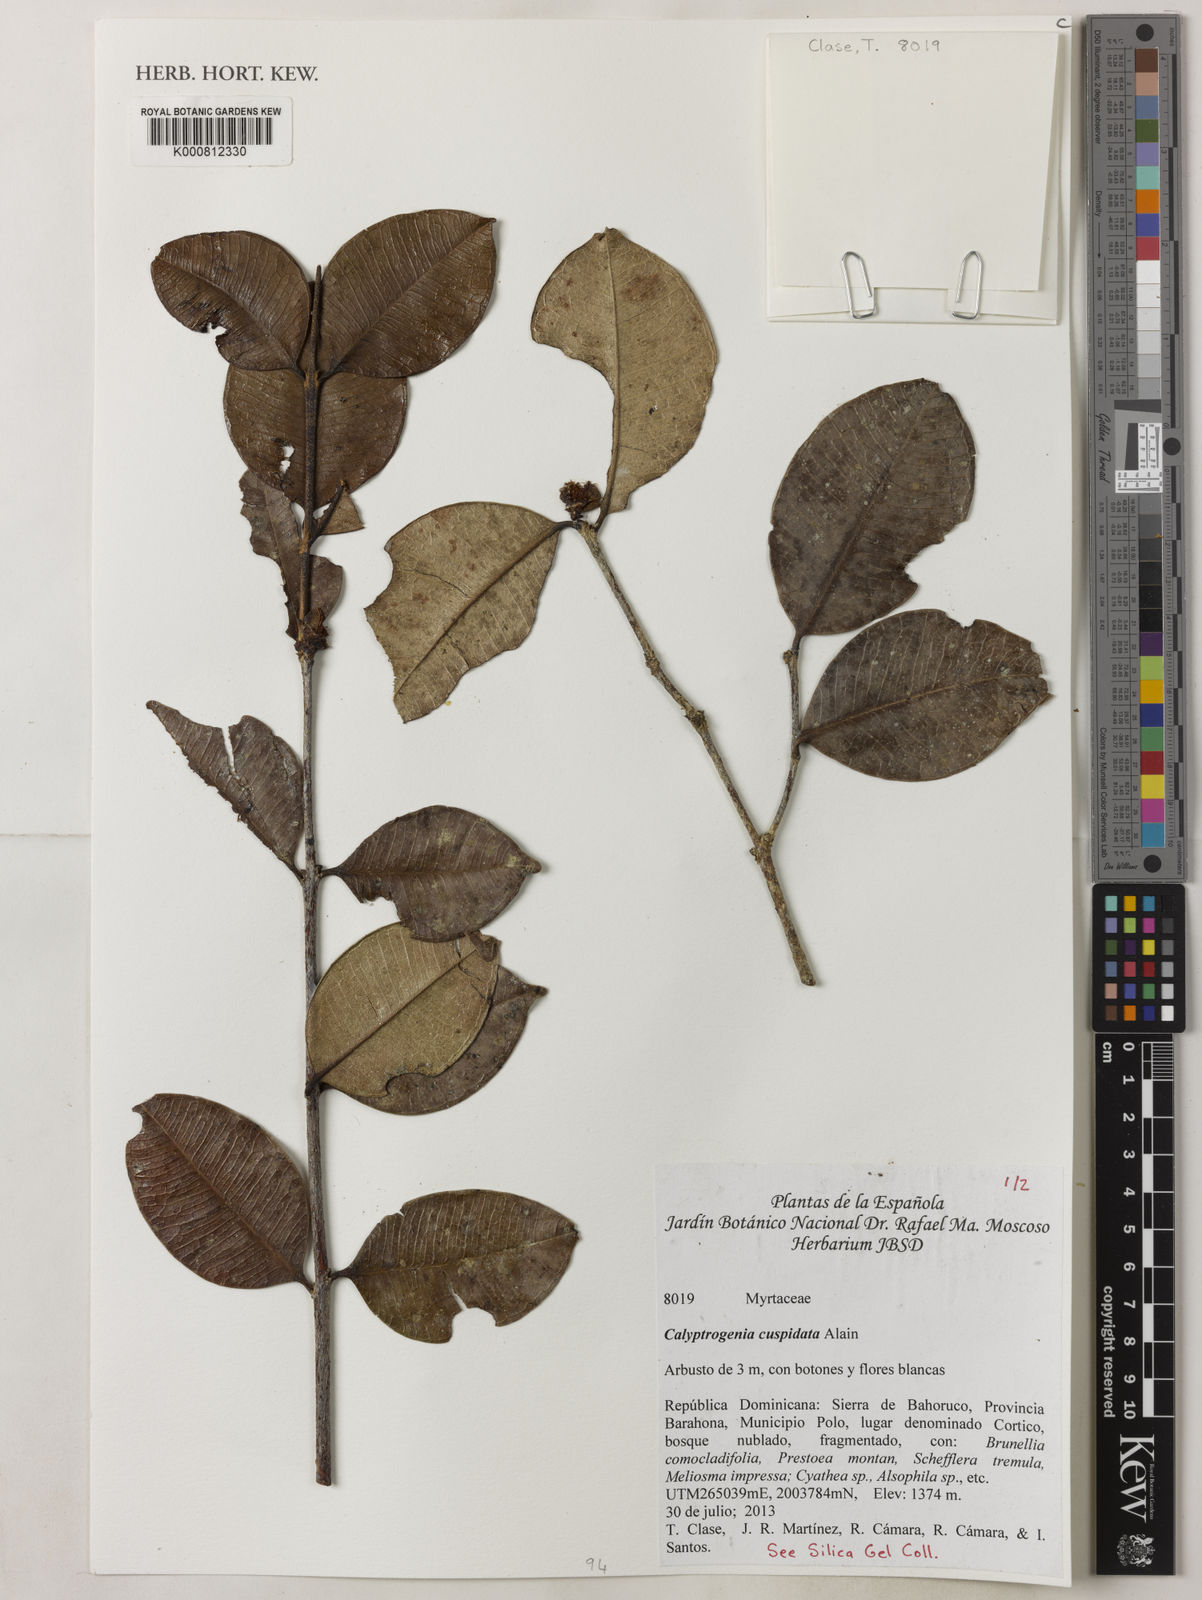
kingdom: Plantae
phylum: Tracheophyta
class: Magnoliopsida
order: Myrtales
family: Myrtaceae
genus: Eugenia
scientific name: Eugenia cryptocardia
